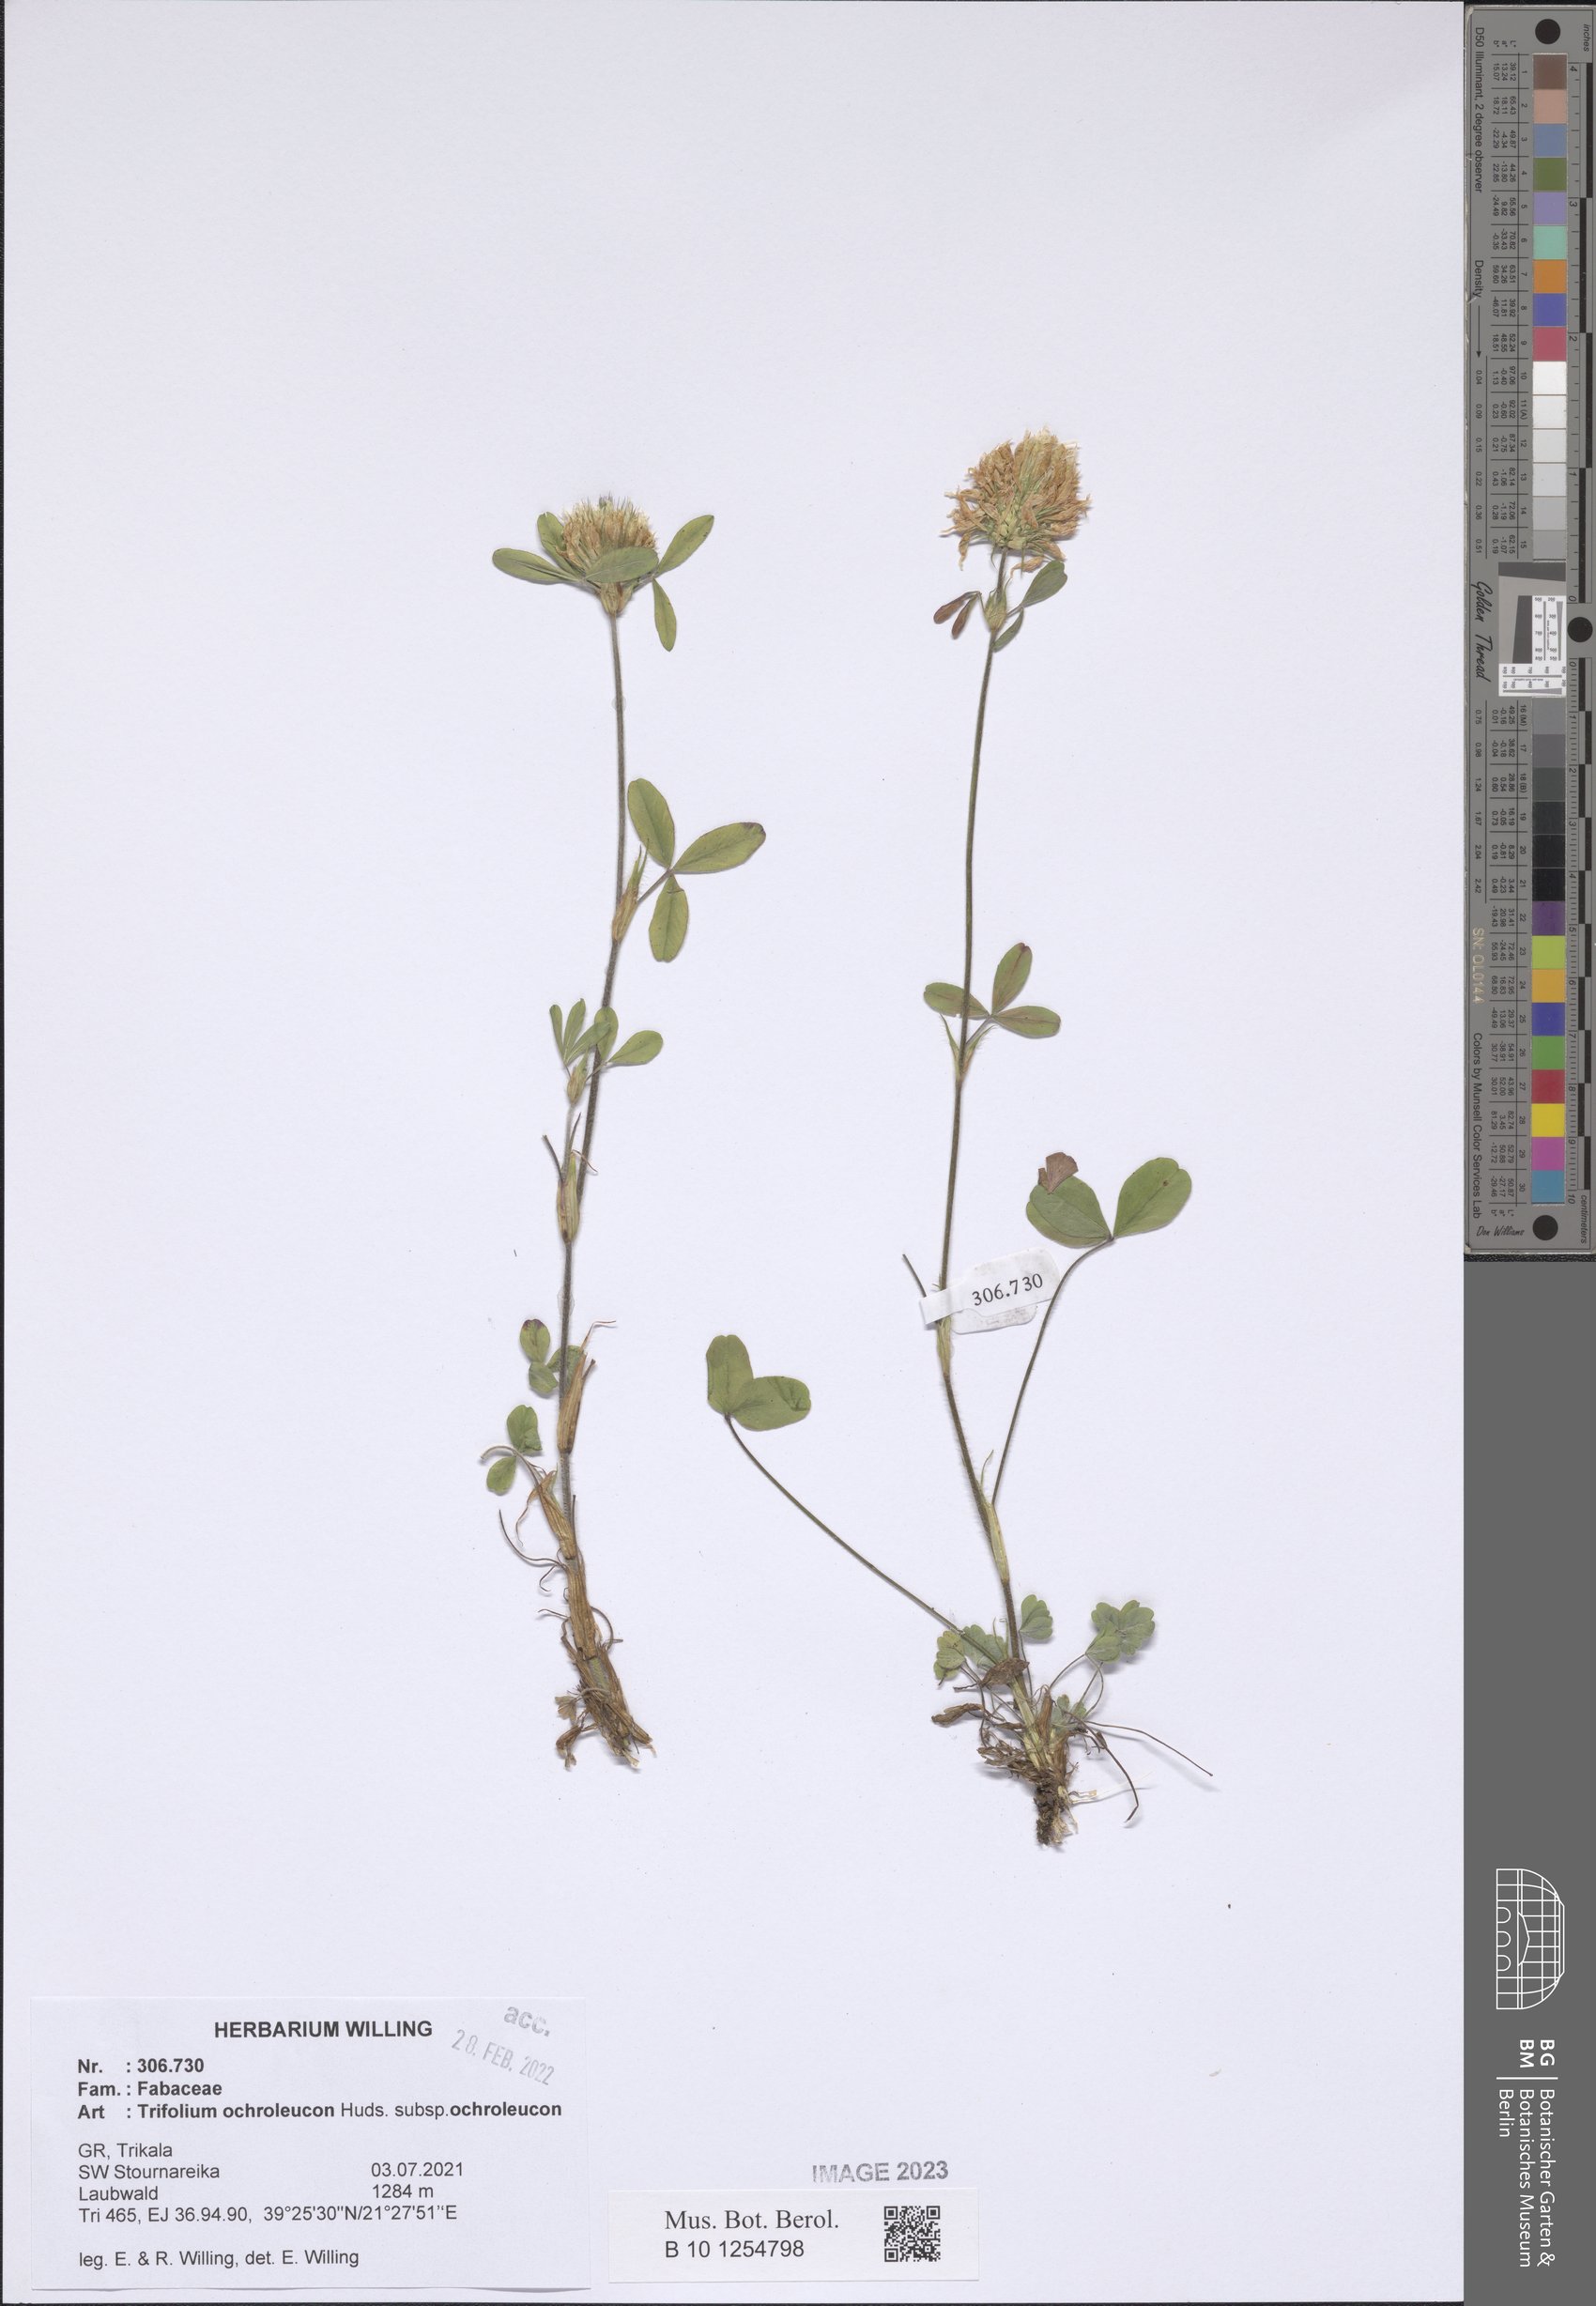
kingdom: Plantae
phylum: Tracheophyta
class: Magnoliopsida
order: Fabales
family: Fabaceae
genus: Trifolium
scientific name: Trifolium ochroleucon
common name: Sulphur clover
